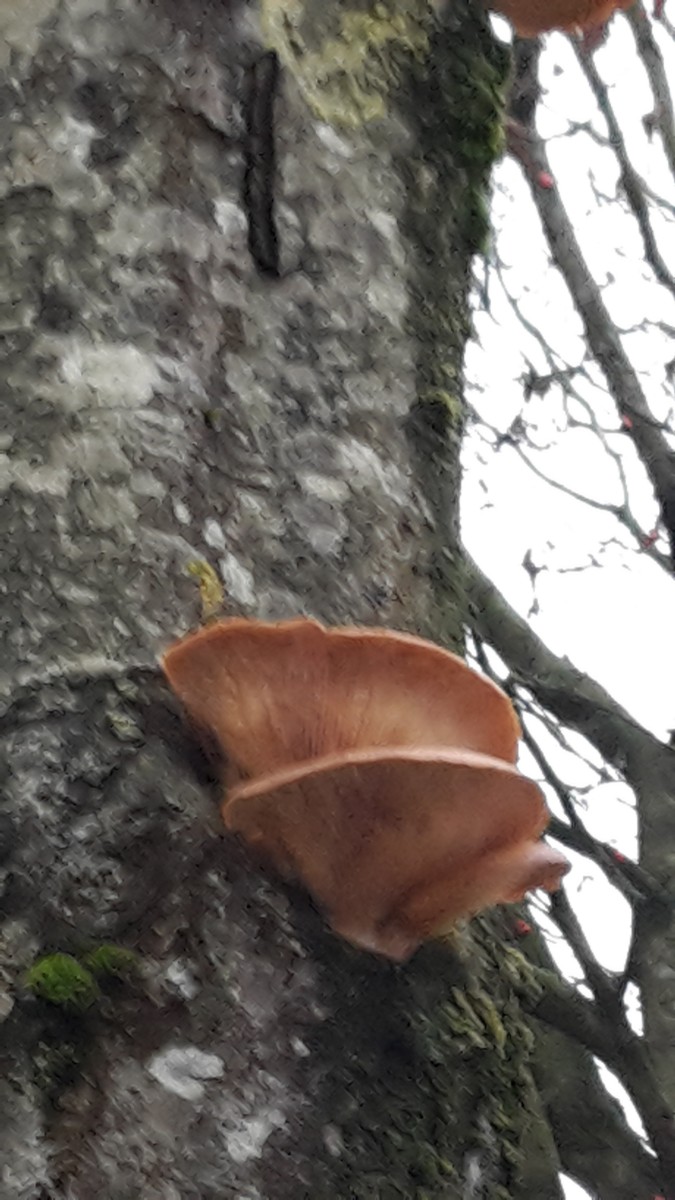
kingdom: Fungi
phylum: Basidiomycota
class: Agaricomycetes
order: Agaricales
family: Pleurotaceae
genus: Pleurotus
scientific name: Pleurotus ostreatus
